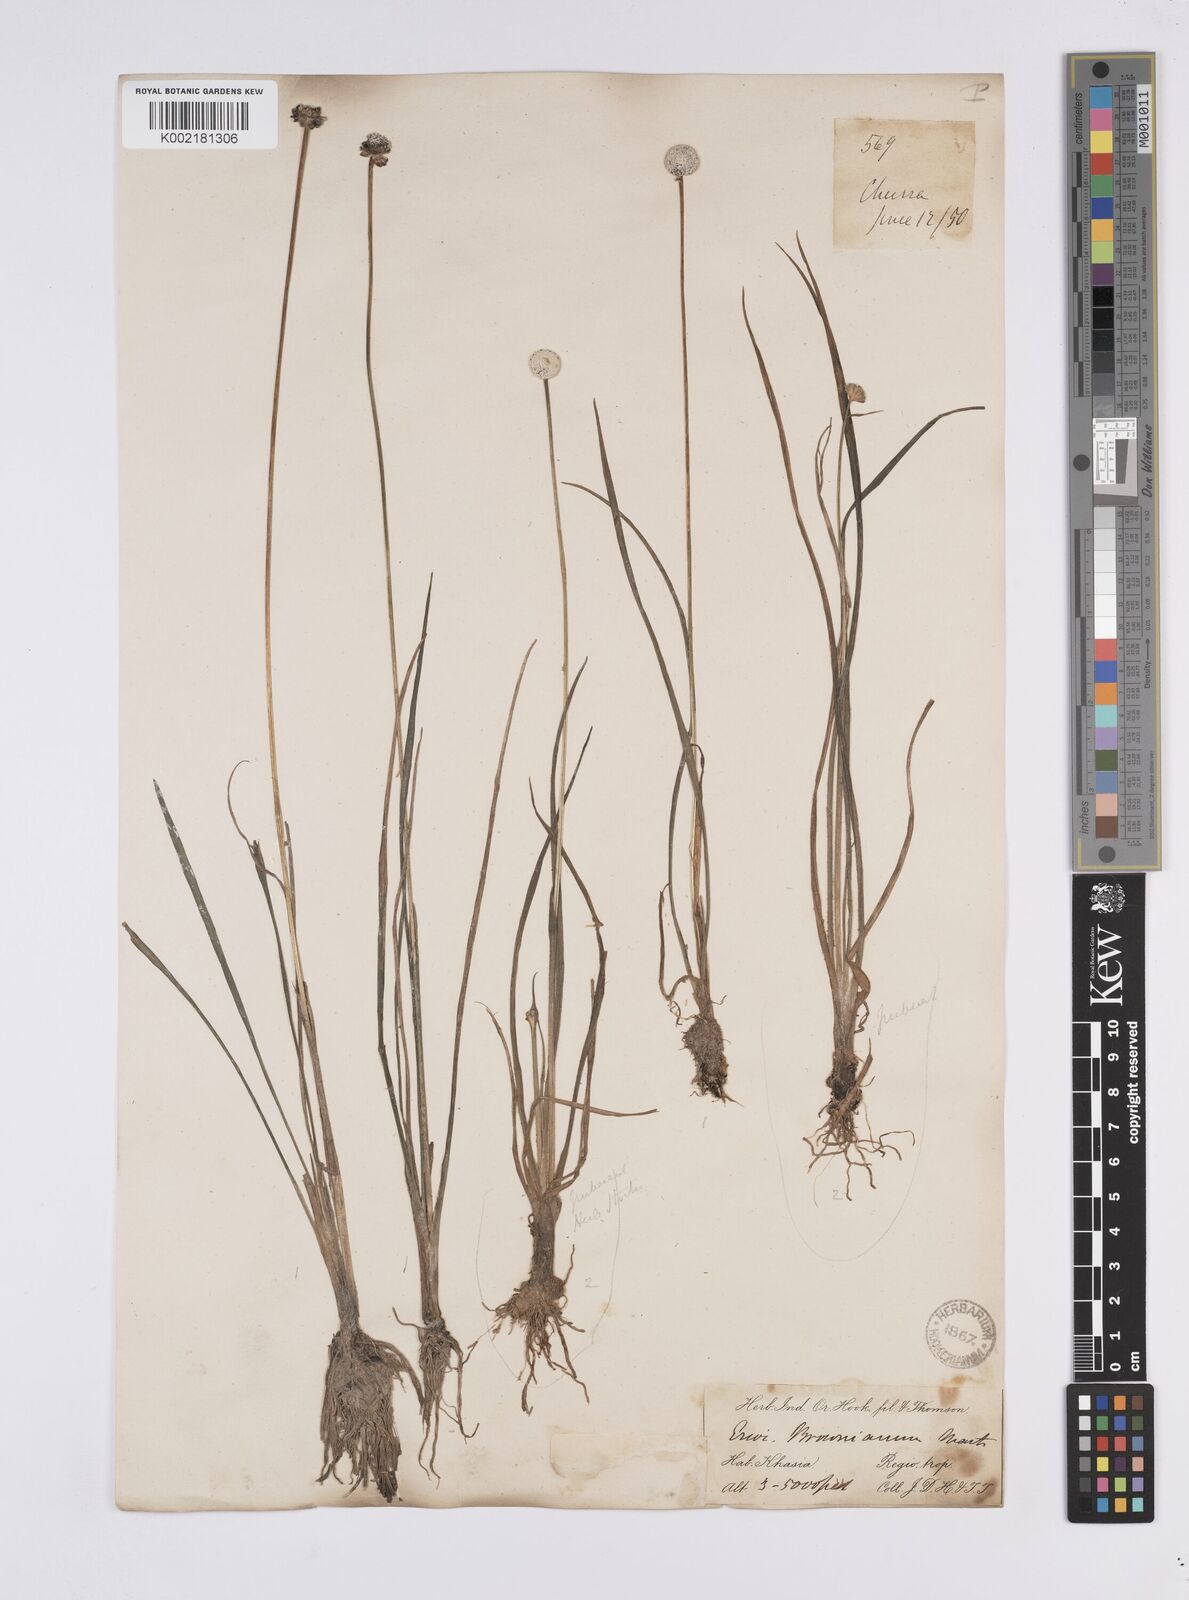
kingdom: Plantae
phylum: Tracheophyta
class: Liliopsida
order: Poales
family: Eriocaulaceae
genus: Eriocaulon
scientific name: Eriocaulon brownianum
